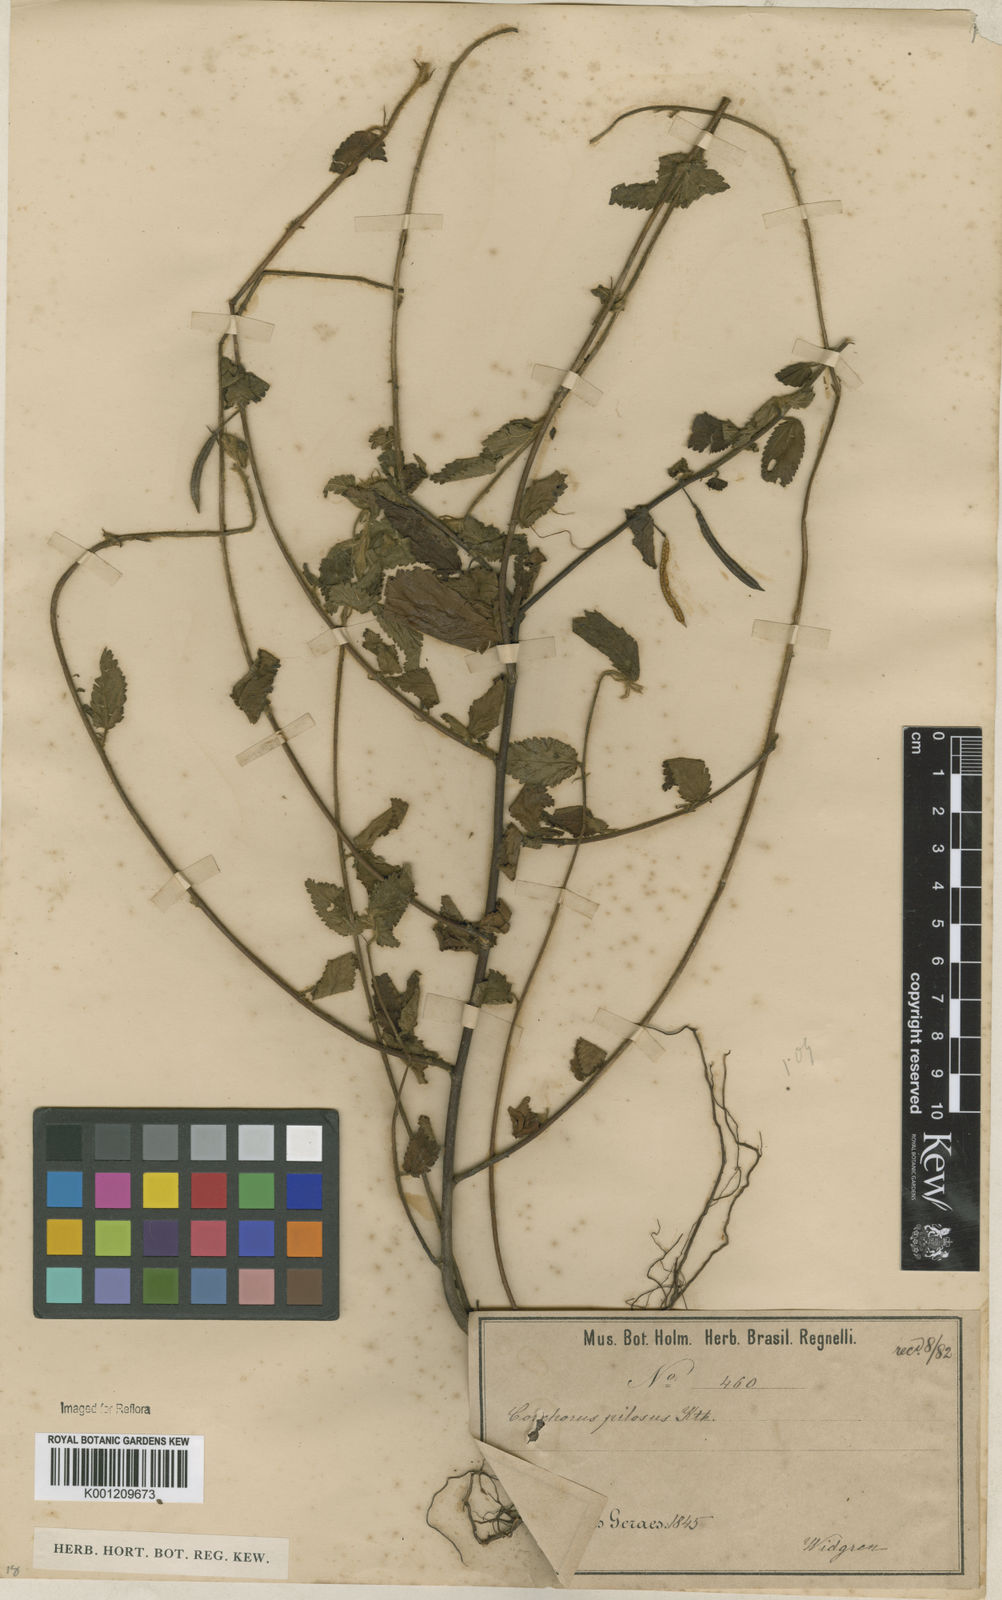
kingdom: Plantae
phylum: Tracheophyta
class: Magnoliopsida
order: Malvales
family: Malvaceae
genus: Corchorus
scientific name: Corchorus hirtus
